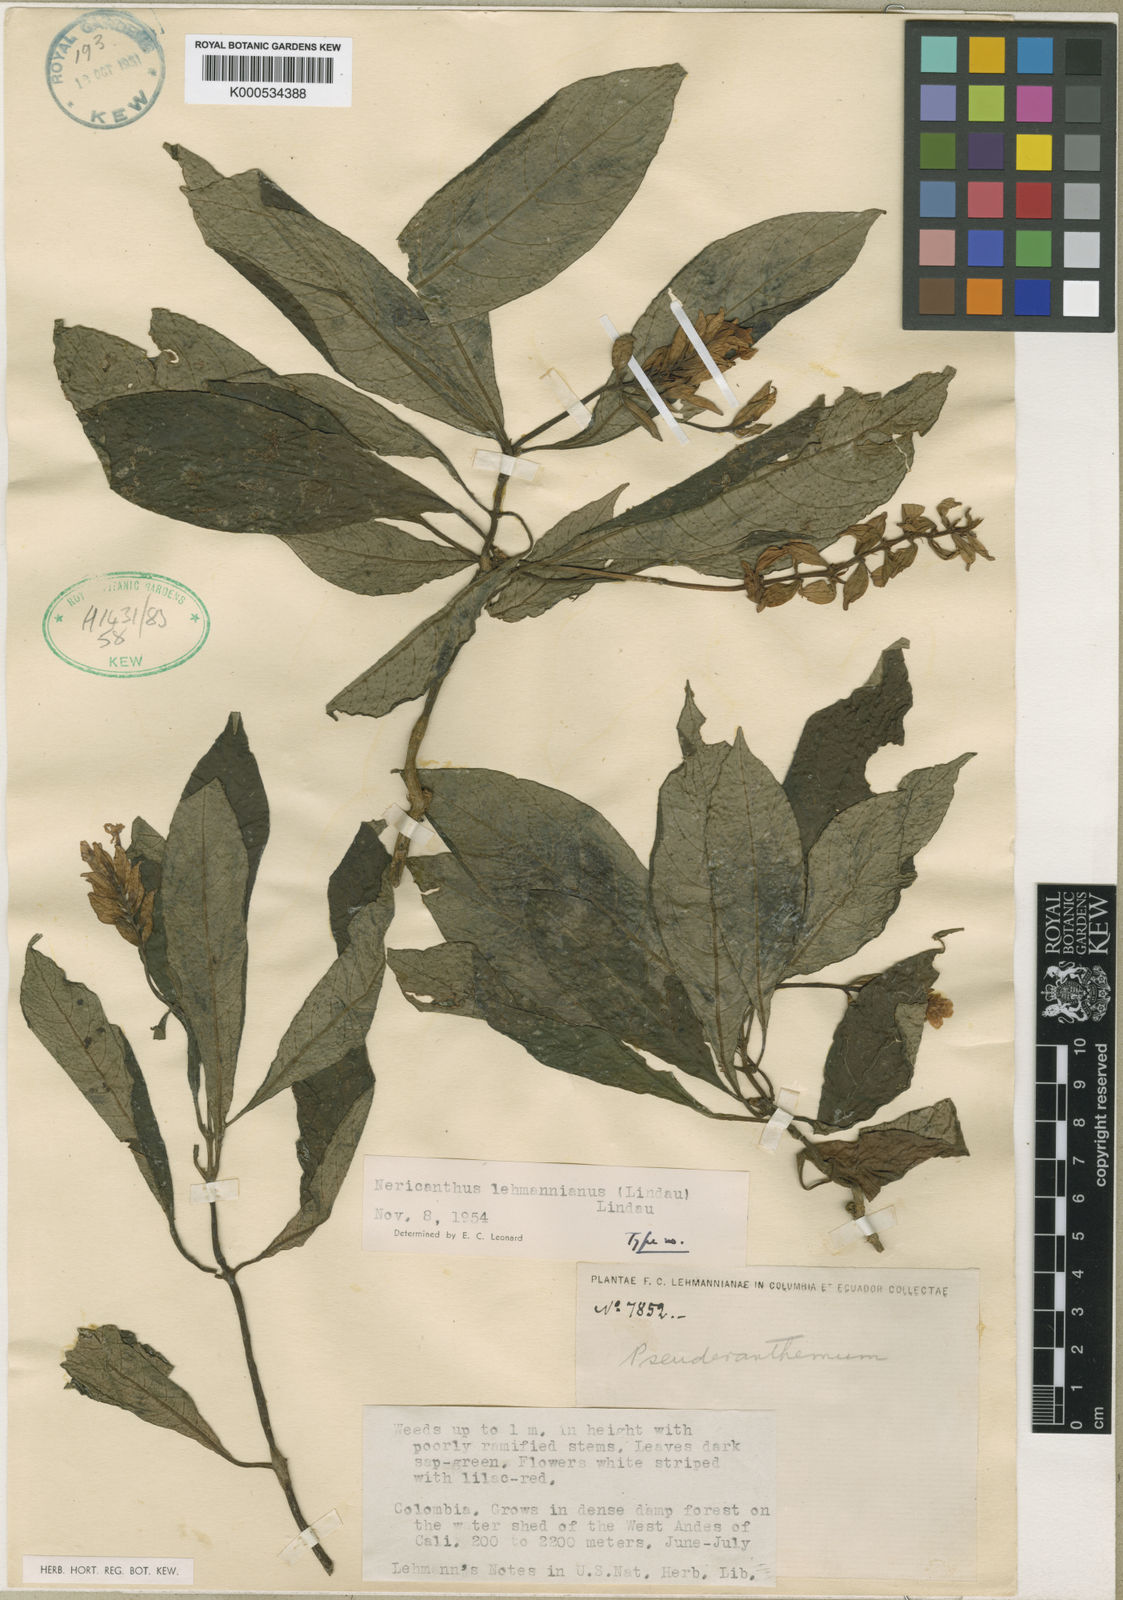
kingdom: Plantae
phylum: Tracheophyta
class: Magnoliopsida
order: Lamiales
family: Acanthaceae
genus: Neriacanthus
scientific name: Neriacanthus lehmannianus
